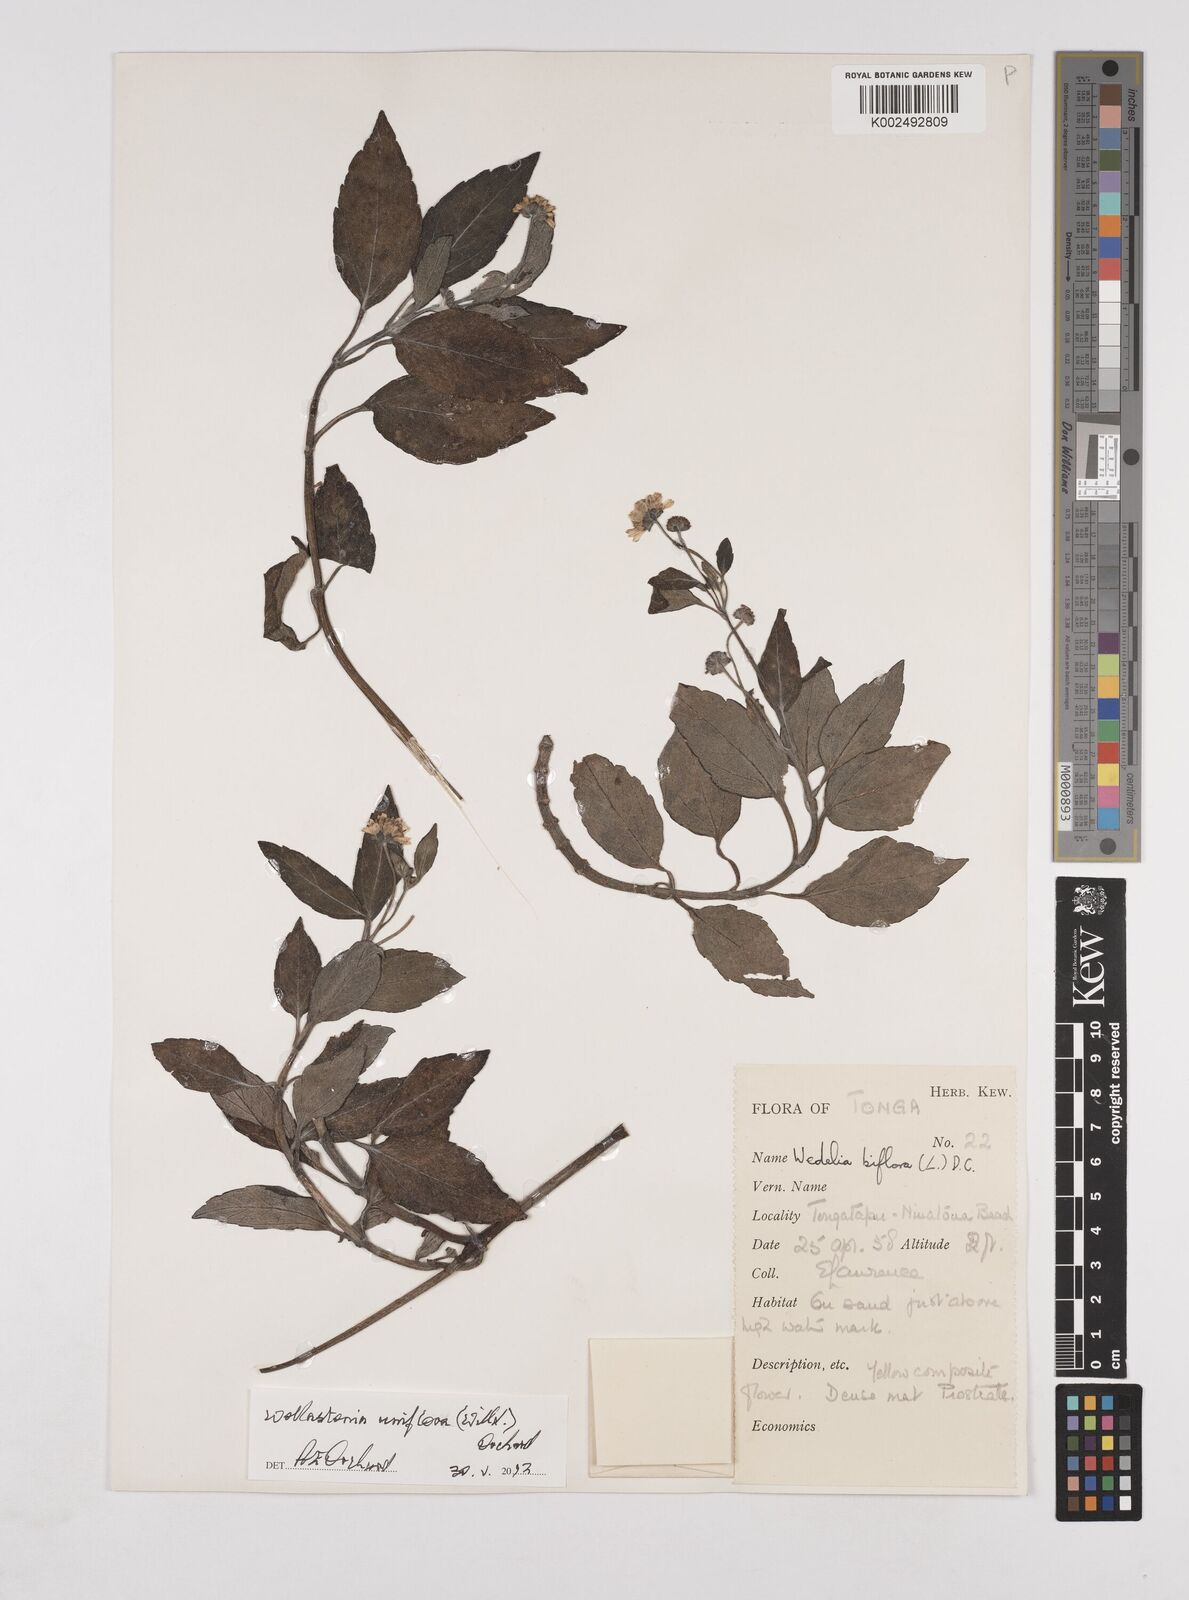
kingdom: Plantae
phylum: Tracheophyta
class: Magnoliopsida
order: Asterales
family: Asteraceae
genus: Wollastonia
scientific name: Wollastonia uniflora
